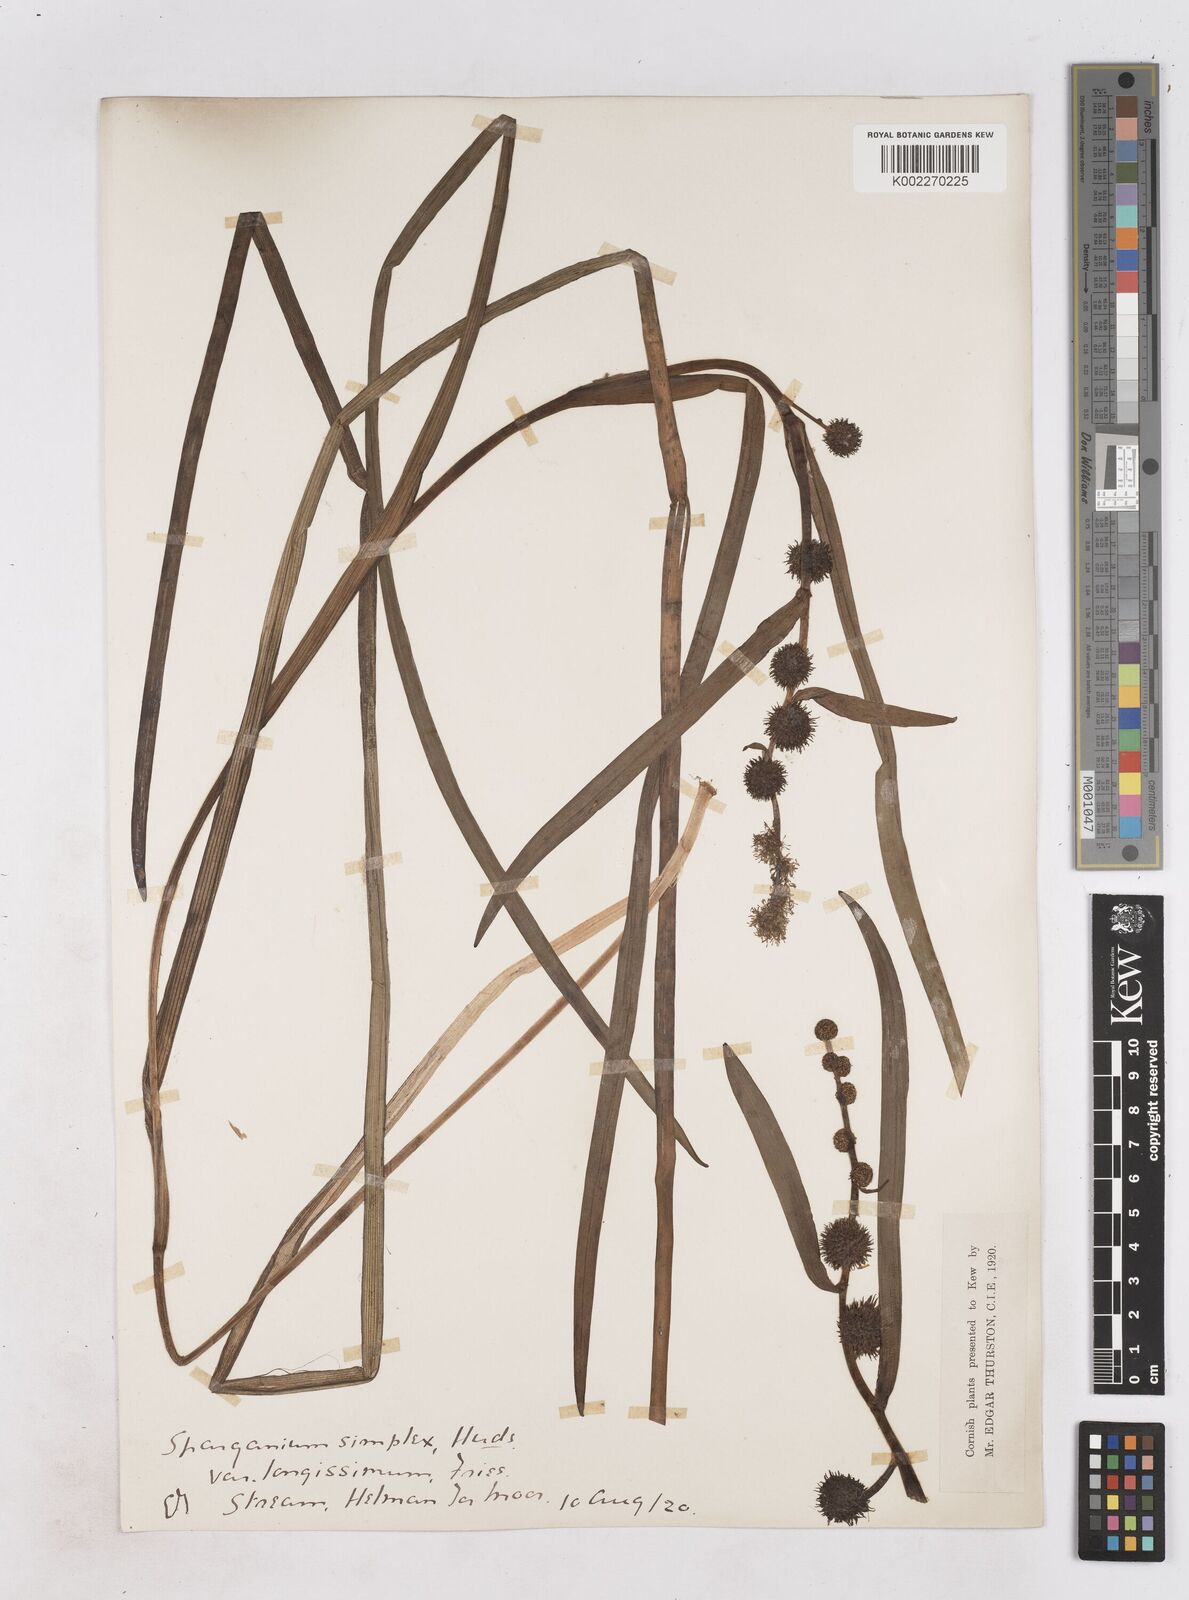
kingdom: Plantae
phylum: Tracheophyta
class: Liliopsida
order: Poales
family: Typhaceae
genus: Sparganium
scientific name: Sparganium emersum
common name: Unbranched bur-reed
